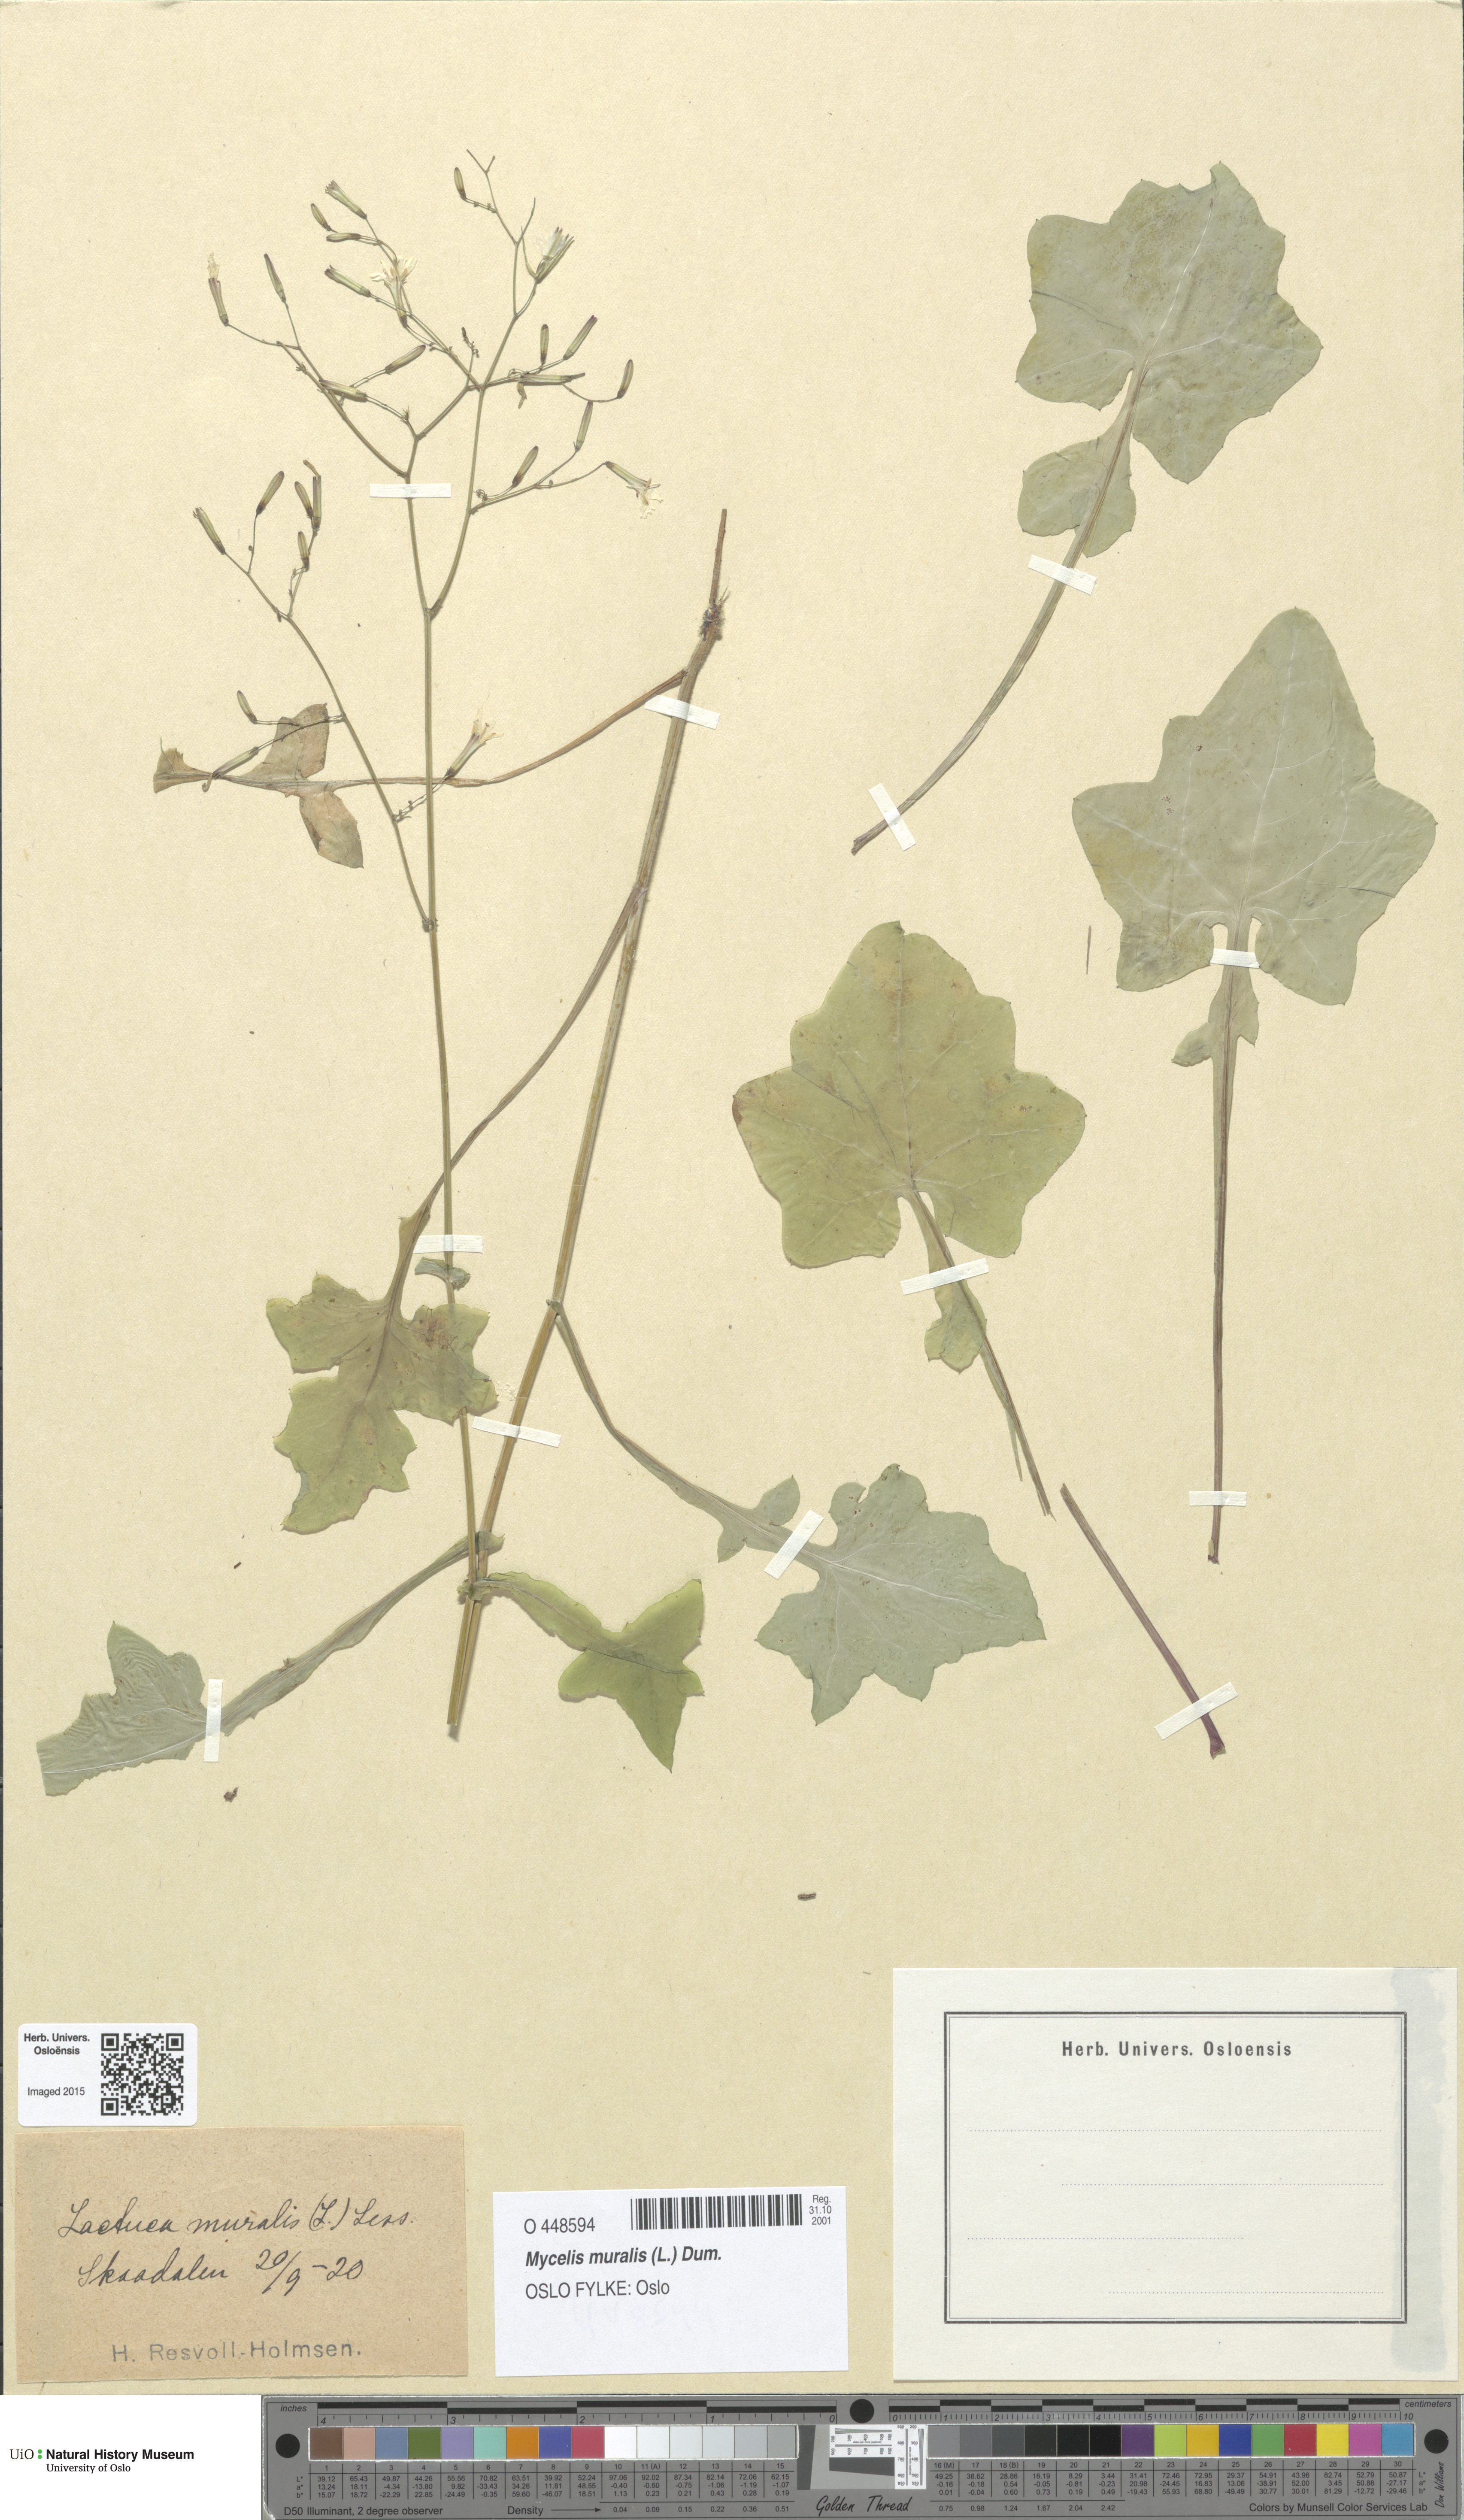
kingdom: Plantae
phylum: Tracheophyta
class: Magnoliopsida
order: Asterales
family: Asteraceae
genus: Mycelis
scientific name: Mycelis muralis
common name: Wall lettuce
